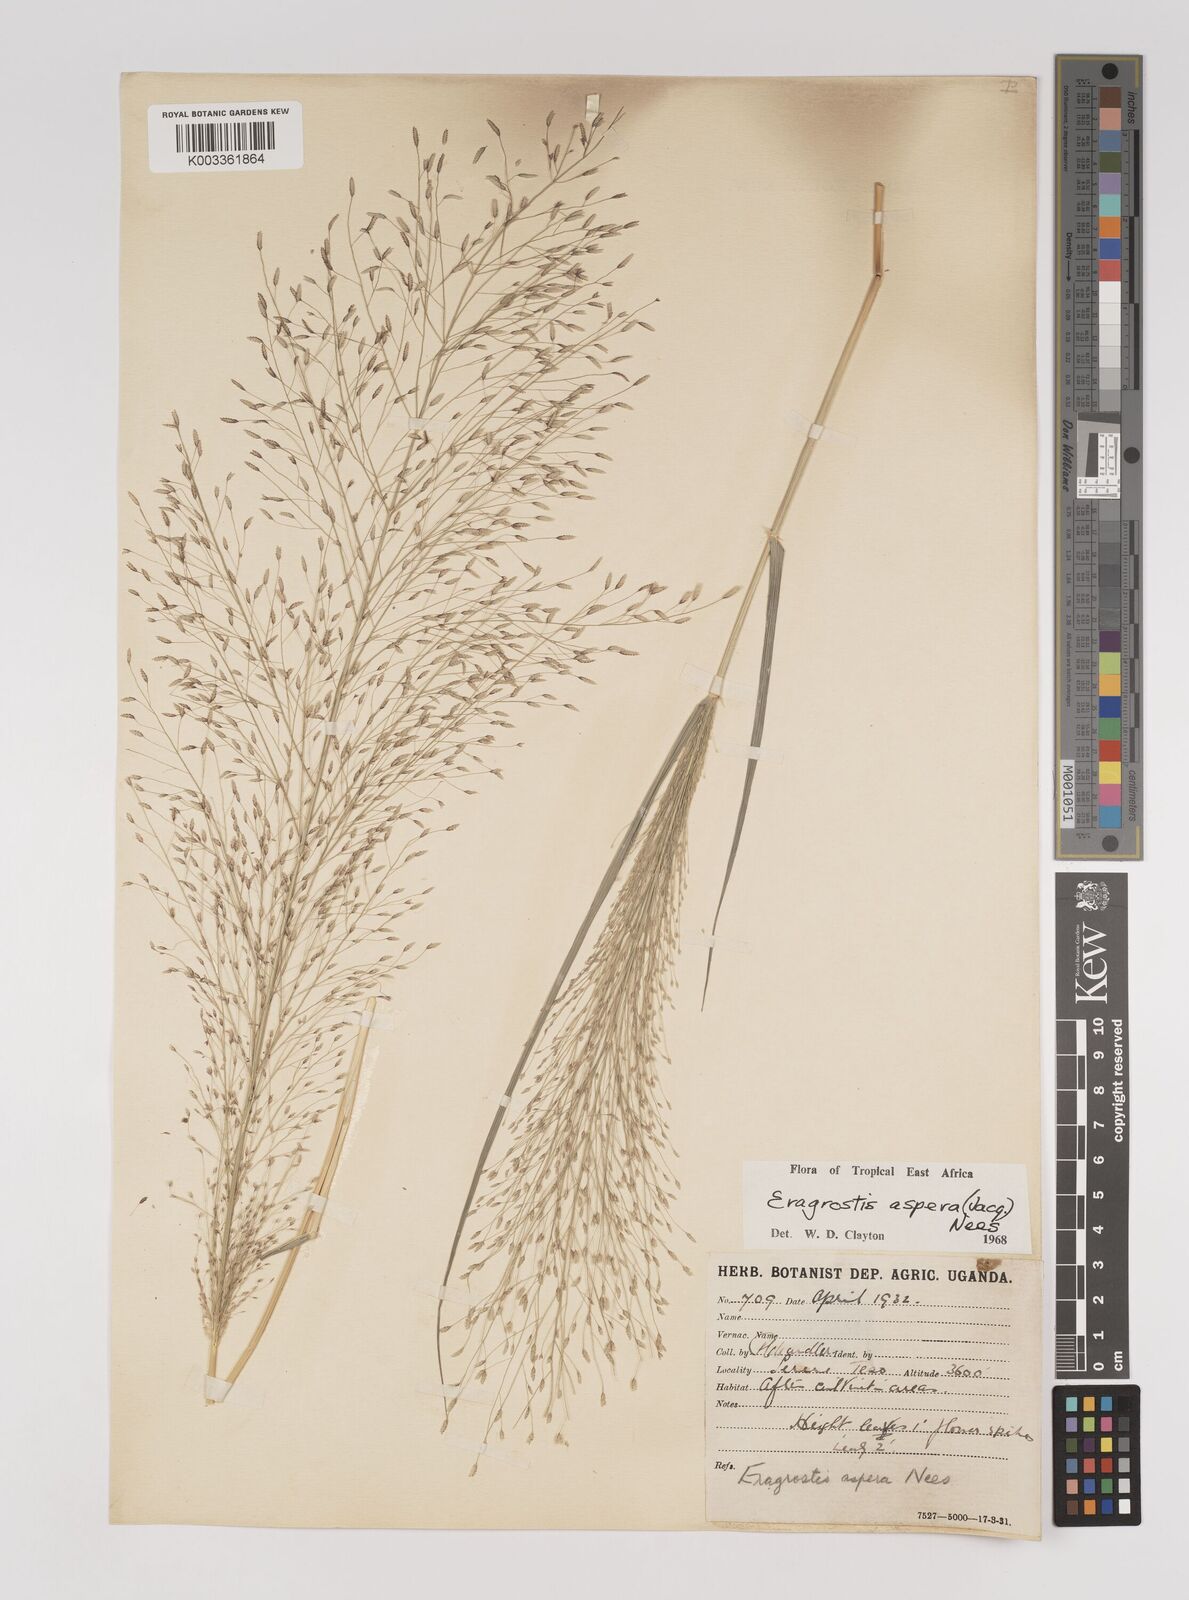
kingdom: Plantae
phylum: Tracheophyta
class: Liliopsida
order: Poales
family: Poaceae
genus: Eragrostis
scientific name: Eragrostis aspera
